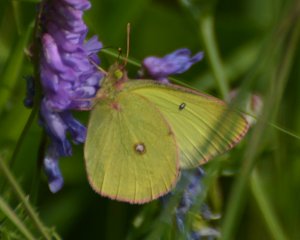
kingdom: Animalia
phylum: Arthropoda
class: Insecta
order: Lepidoptera
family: Pieridae
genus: Colias
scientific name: Colias interior
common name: Pink-edged Sulphur
